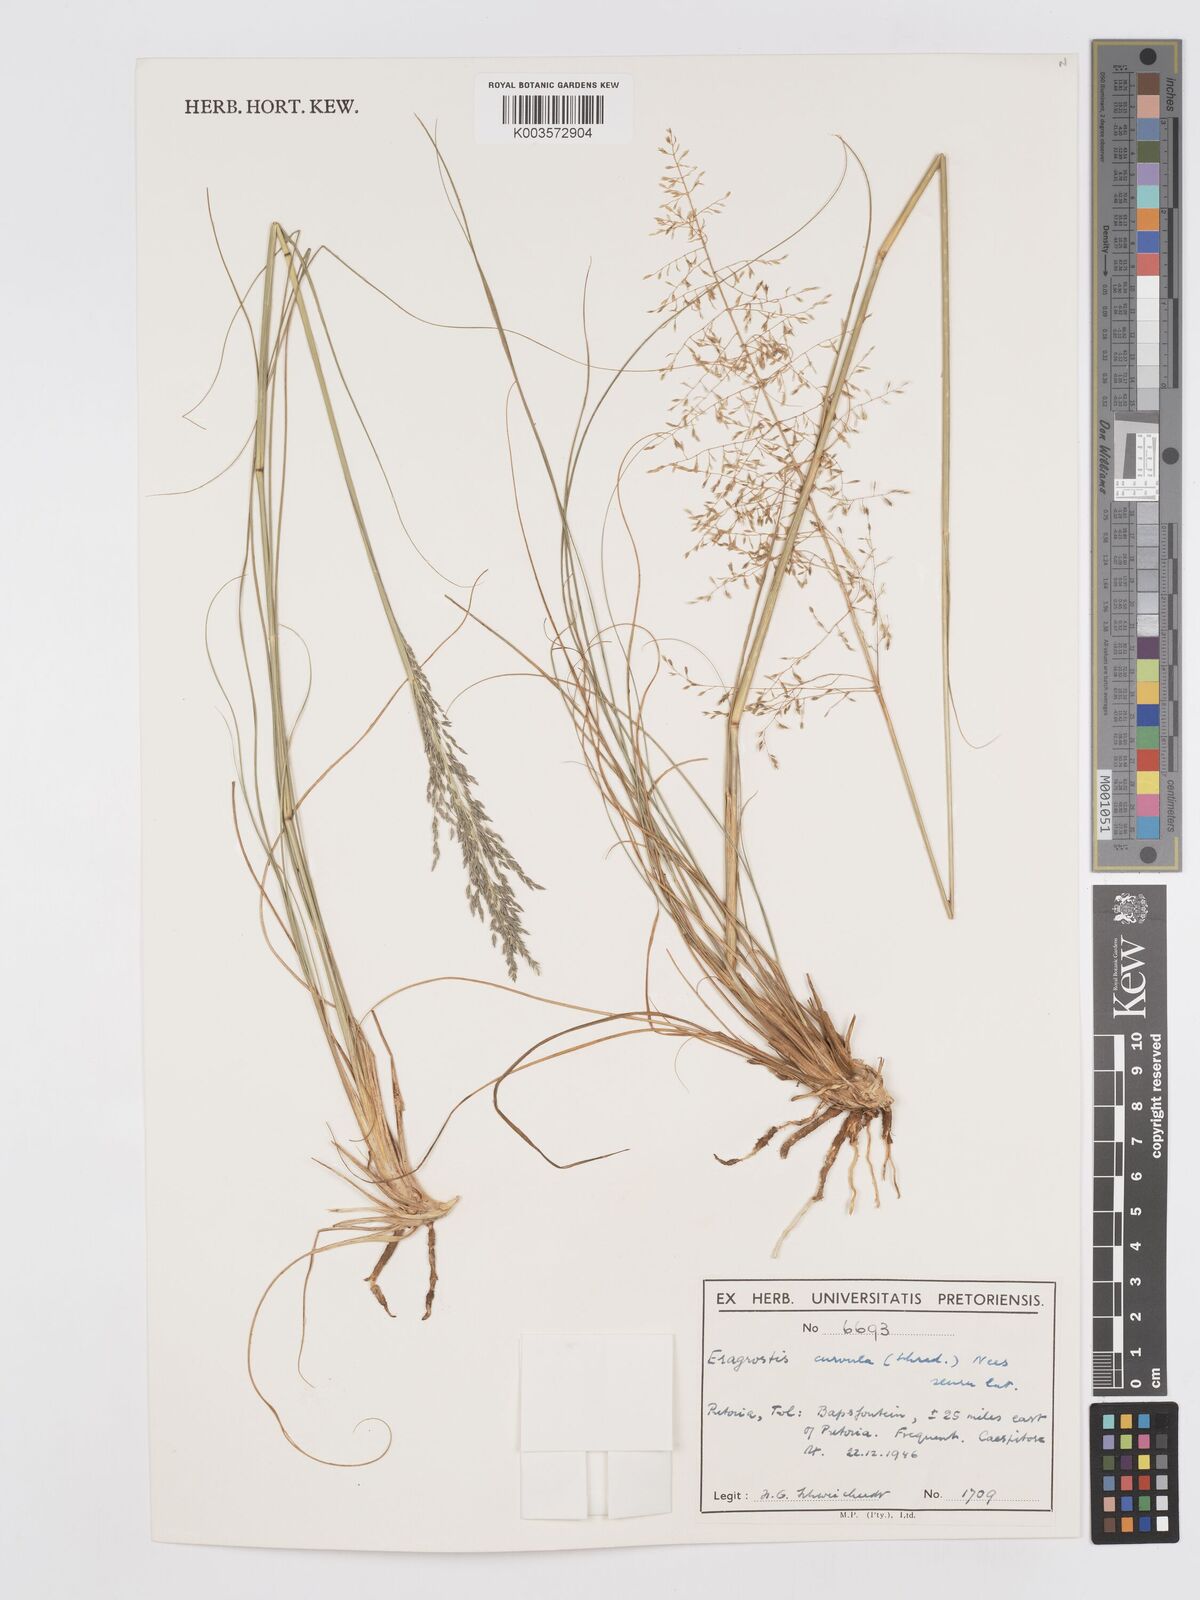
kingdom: Plantae
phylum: Tracheophyta
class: Liliopsida
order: Poales
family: Poaceae
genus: Eragrostis
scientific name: Eragrostis curvula
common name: African love-grass
